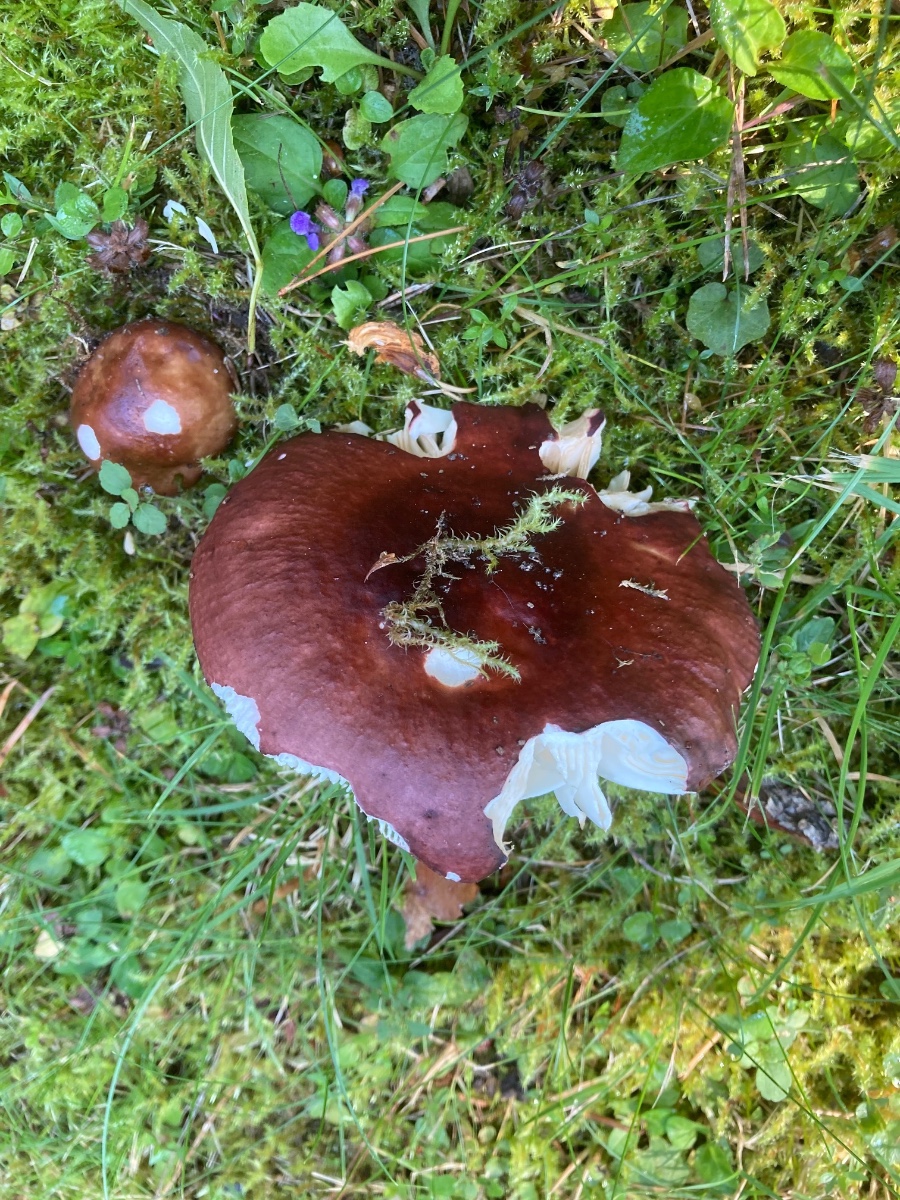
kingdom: Fungi
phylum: Basidiomycota
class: Agaricomycetes
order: Russulales
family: Russulaceae
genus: Russula
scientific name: Russula integra
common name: mandel-skørhat
